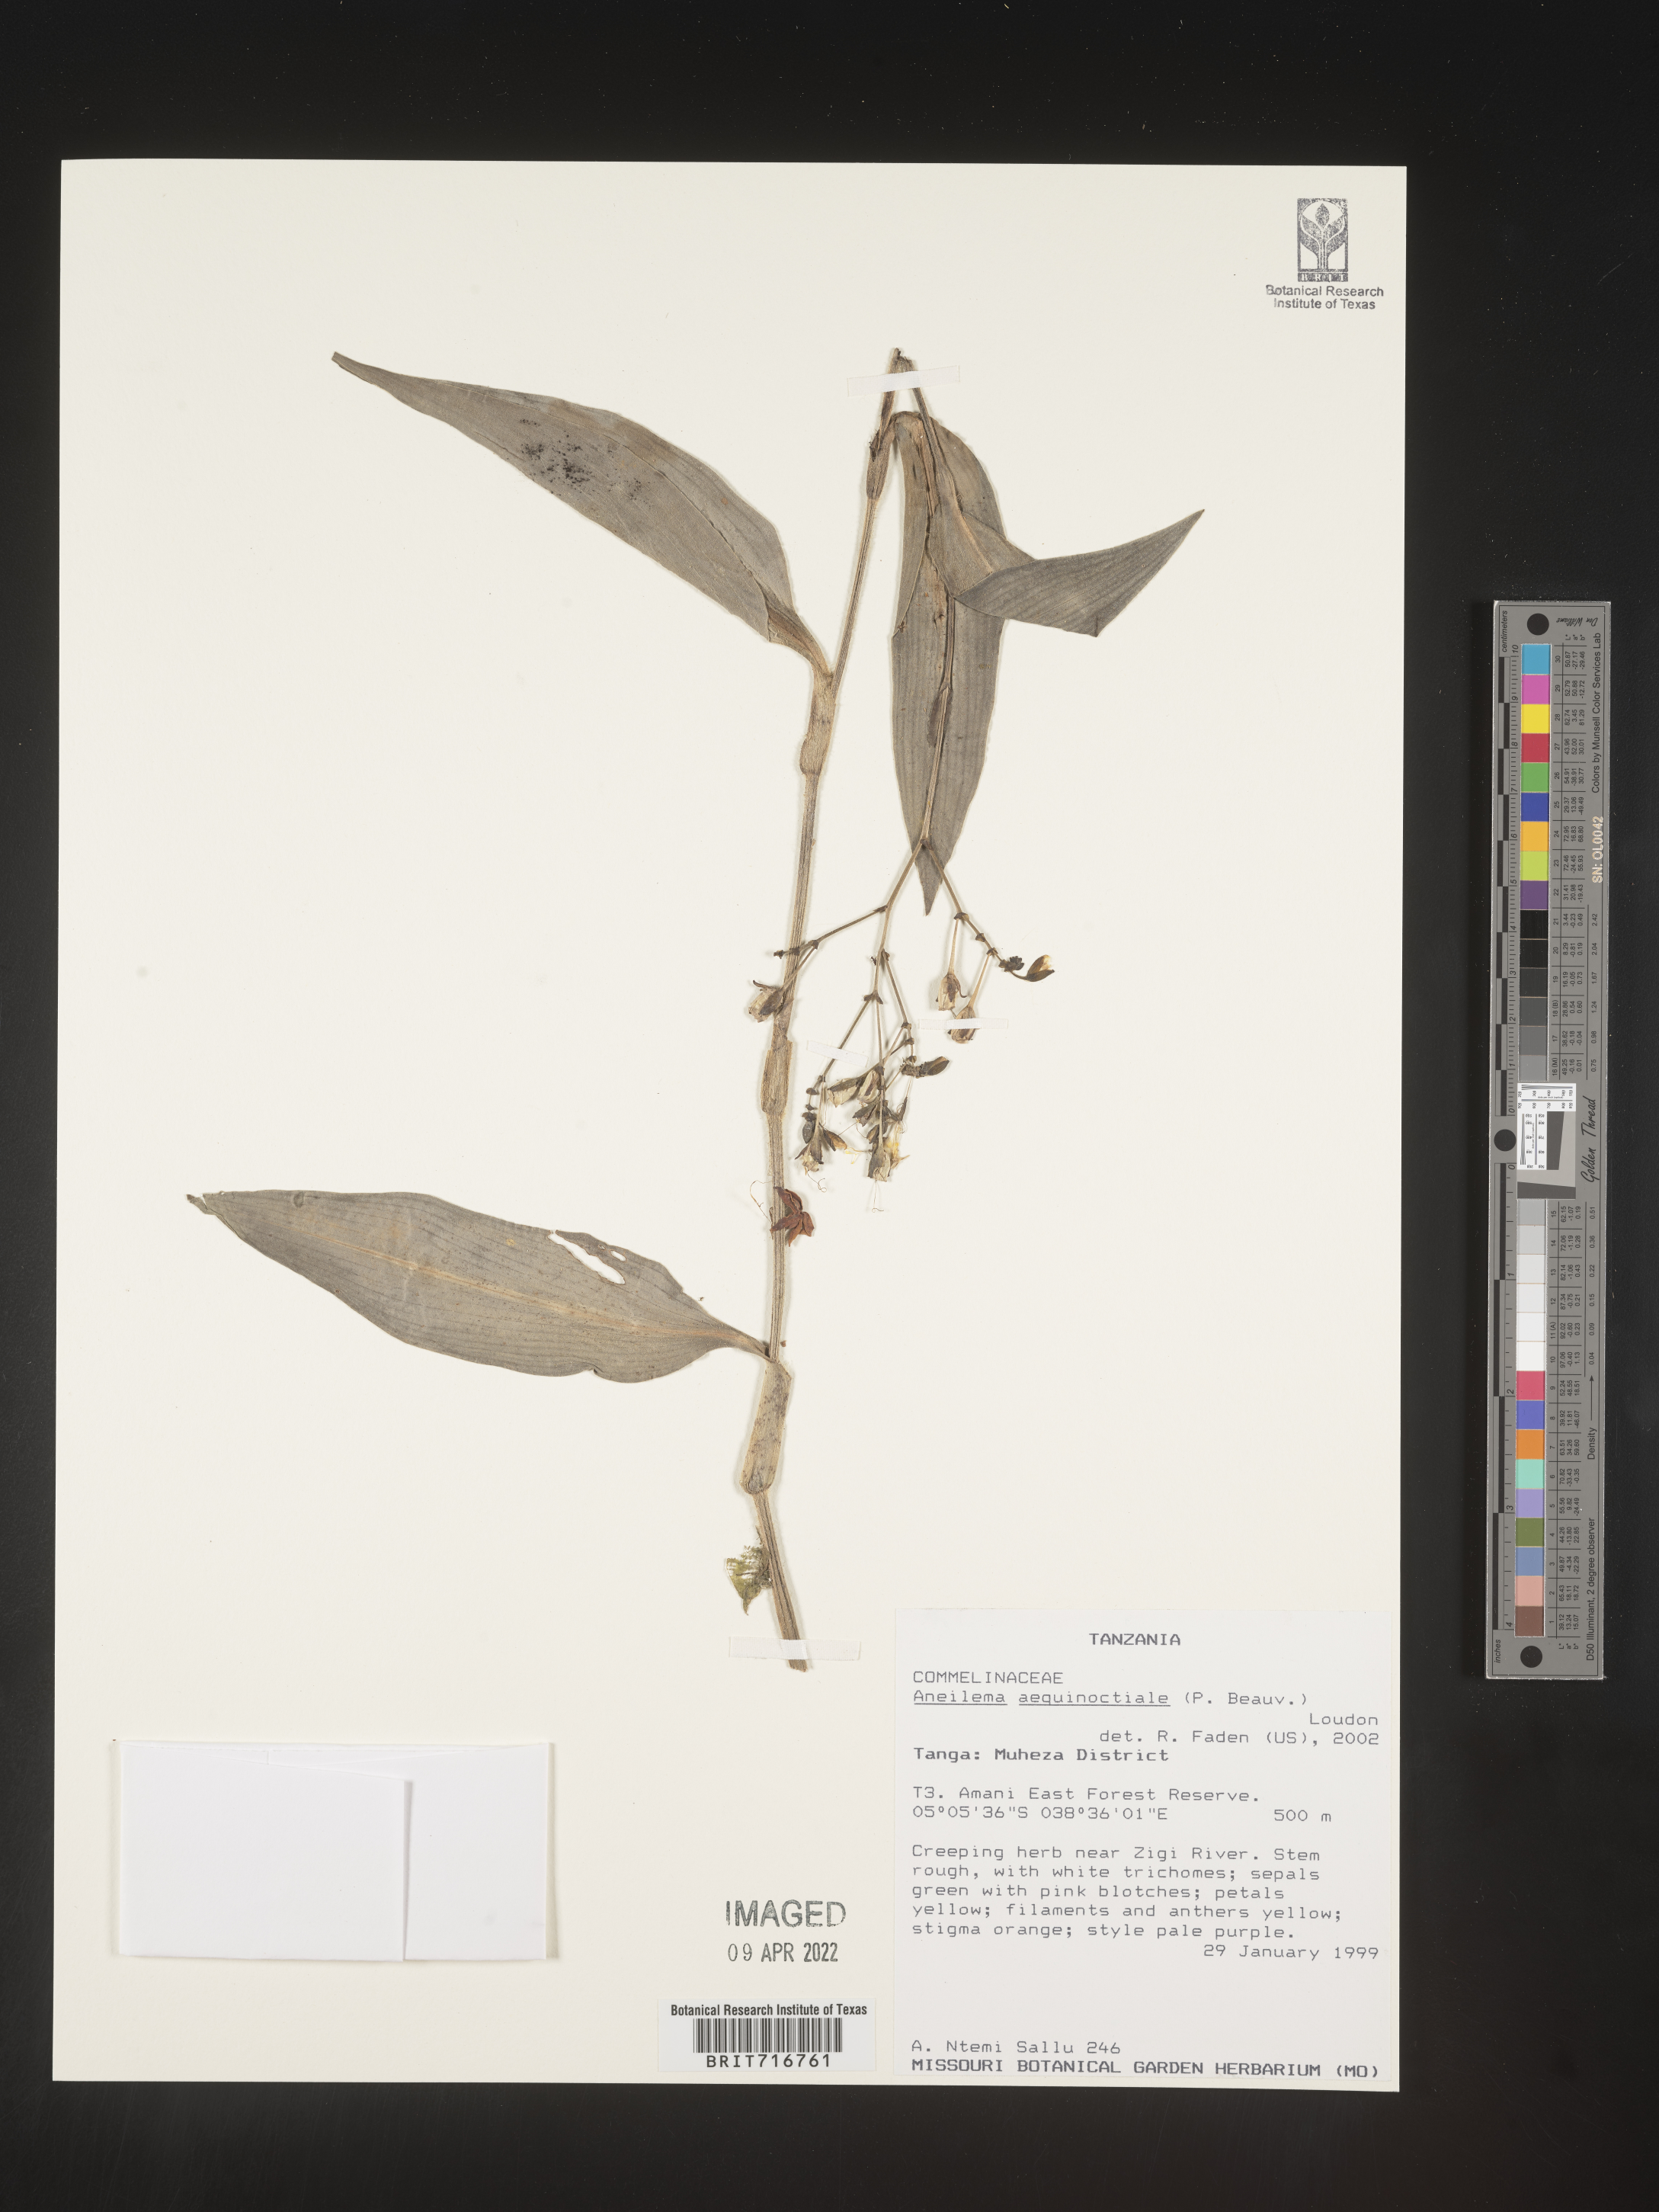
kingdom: Plantae
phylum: Tracheophyta
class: Liliopsida
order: Commelinales
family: Commelinaceae
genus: Aneilema
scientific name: Aneilema
